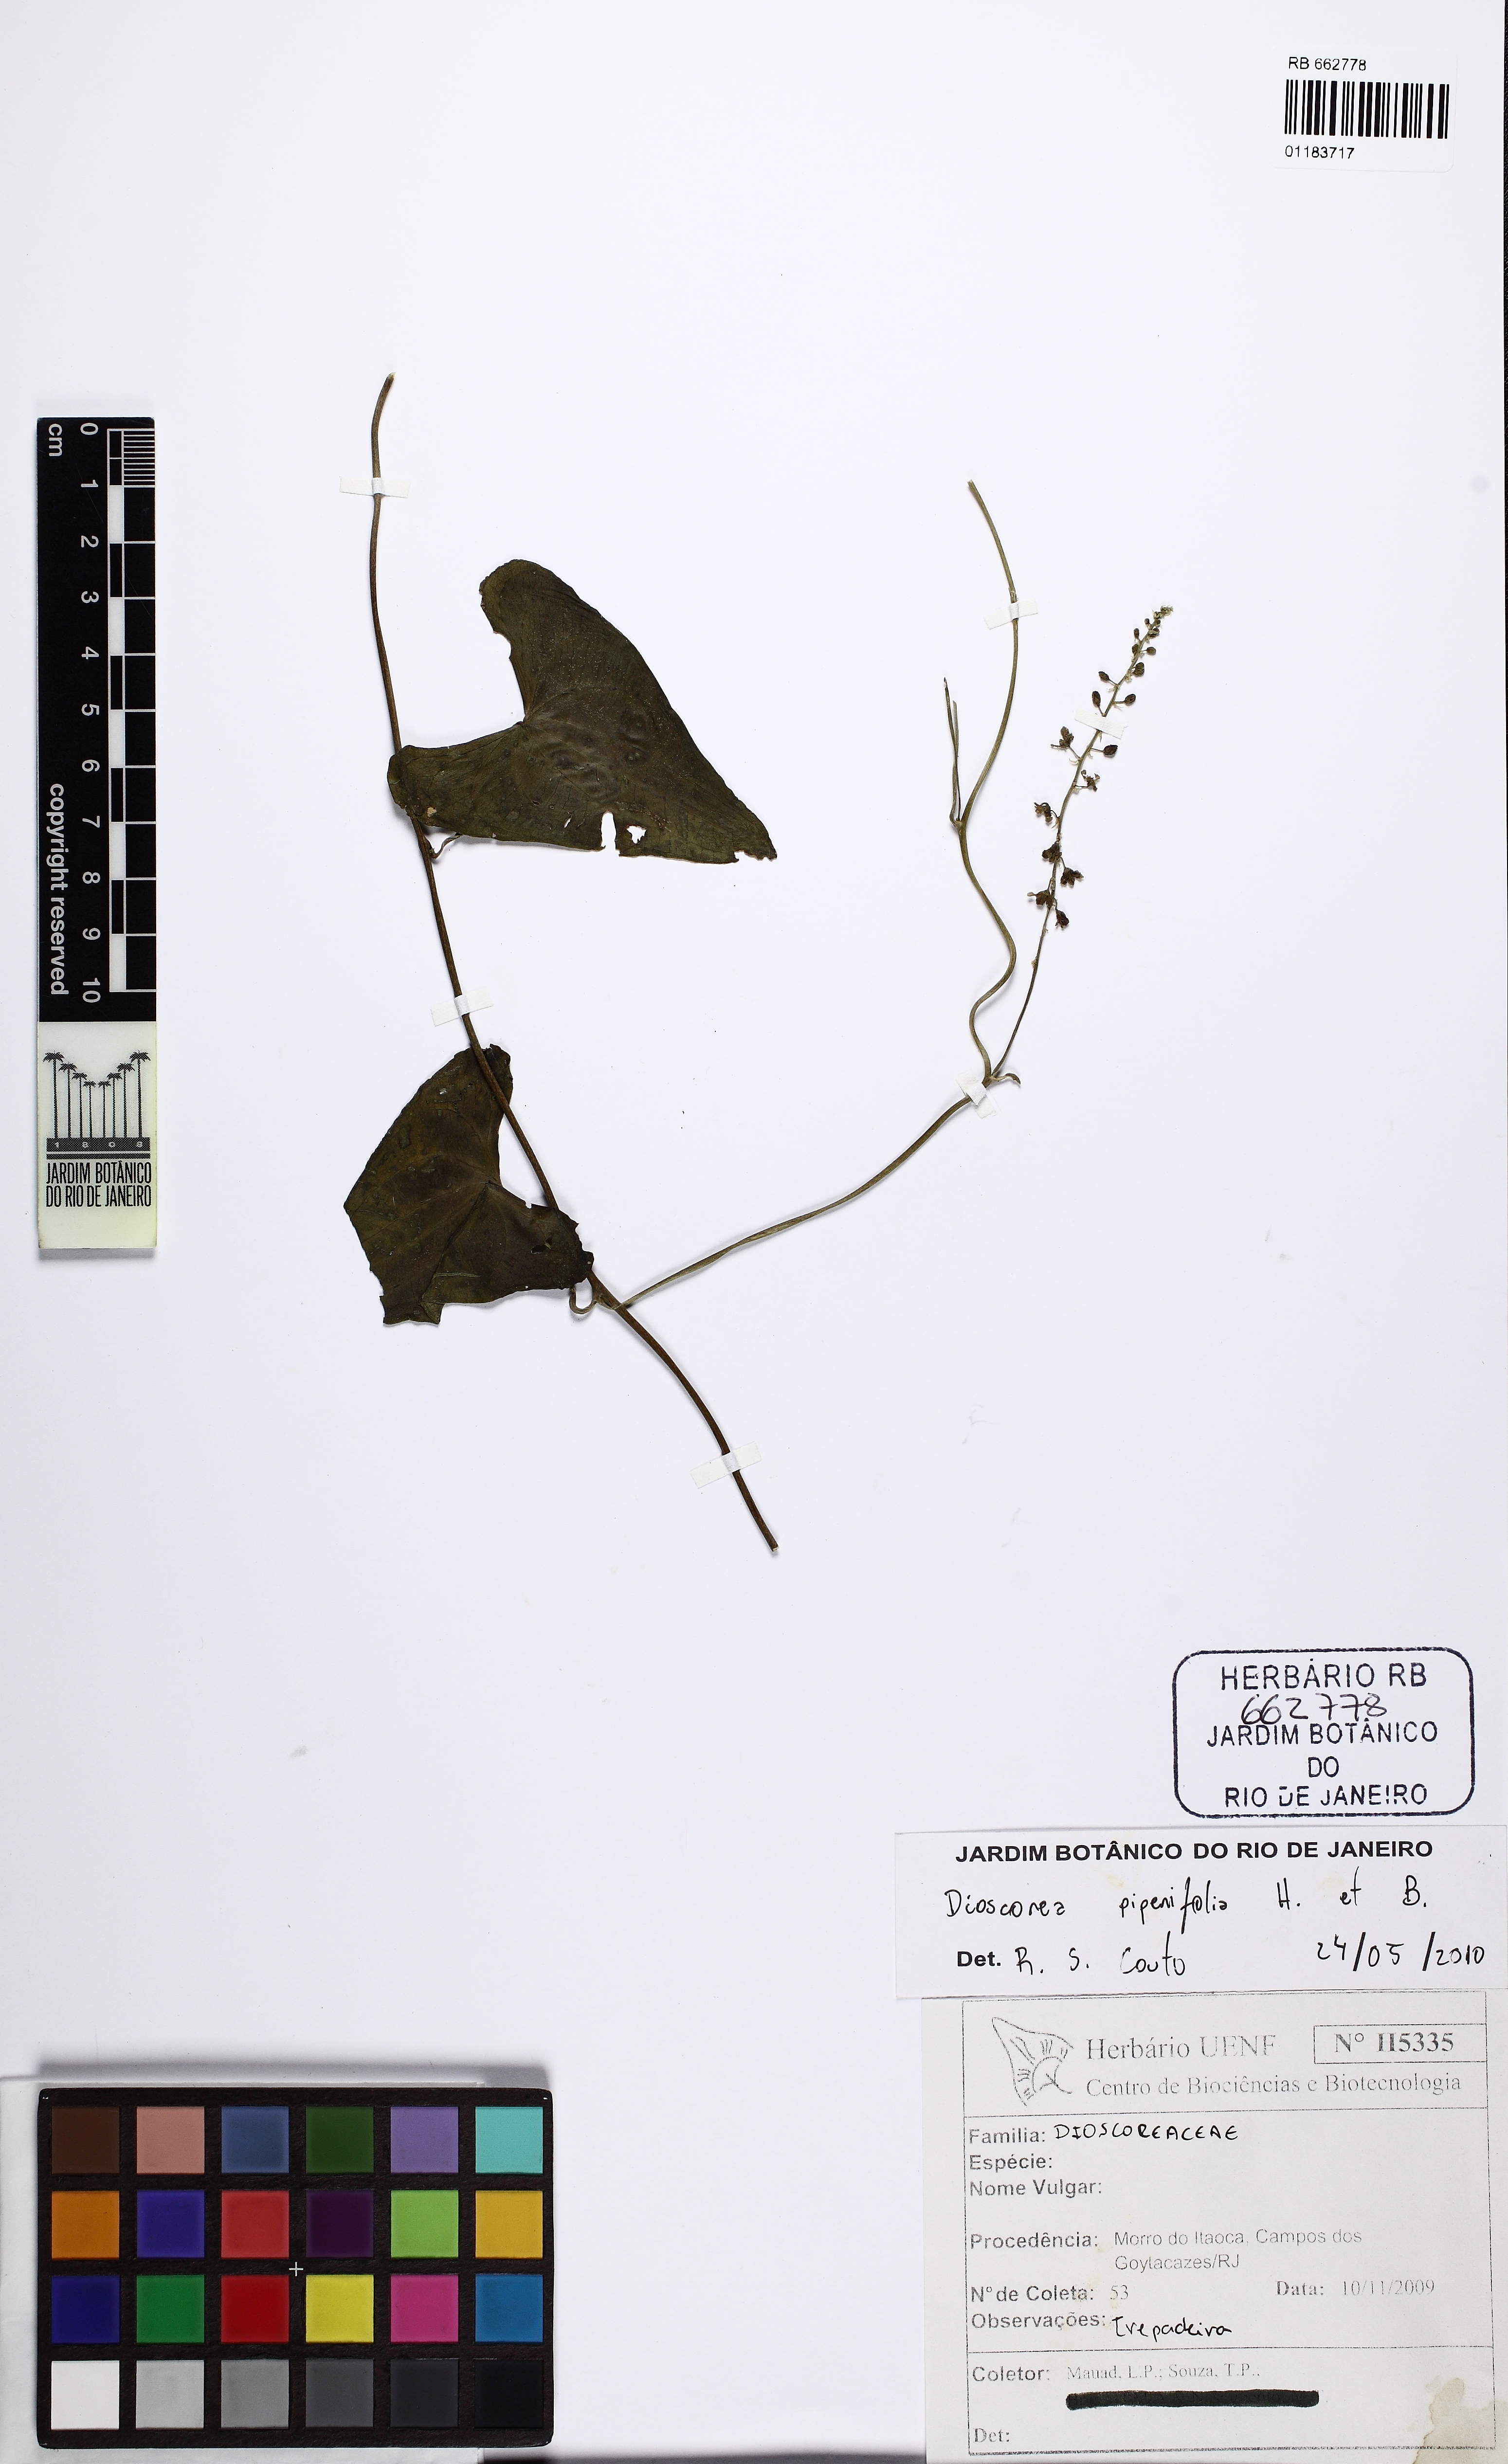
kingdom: Plantae
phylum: Tracheophyta
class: Liliopsida
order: Dioscoreales
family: Dioscoreaceae
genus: Dioscorea
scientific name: Dioscorea piperifolia
